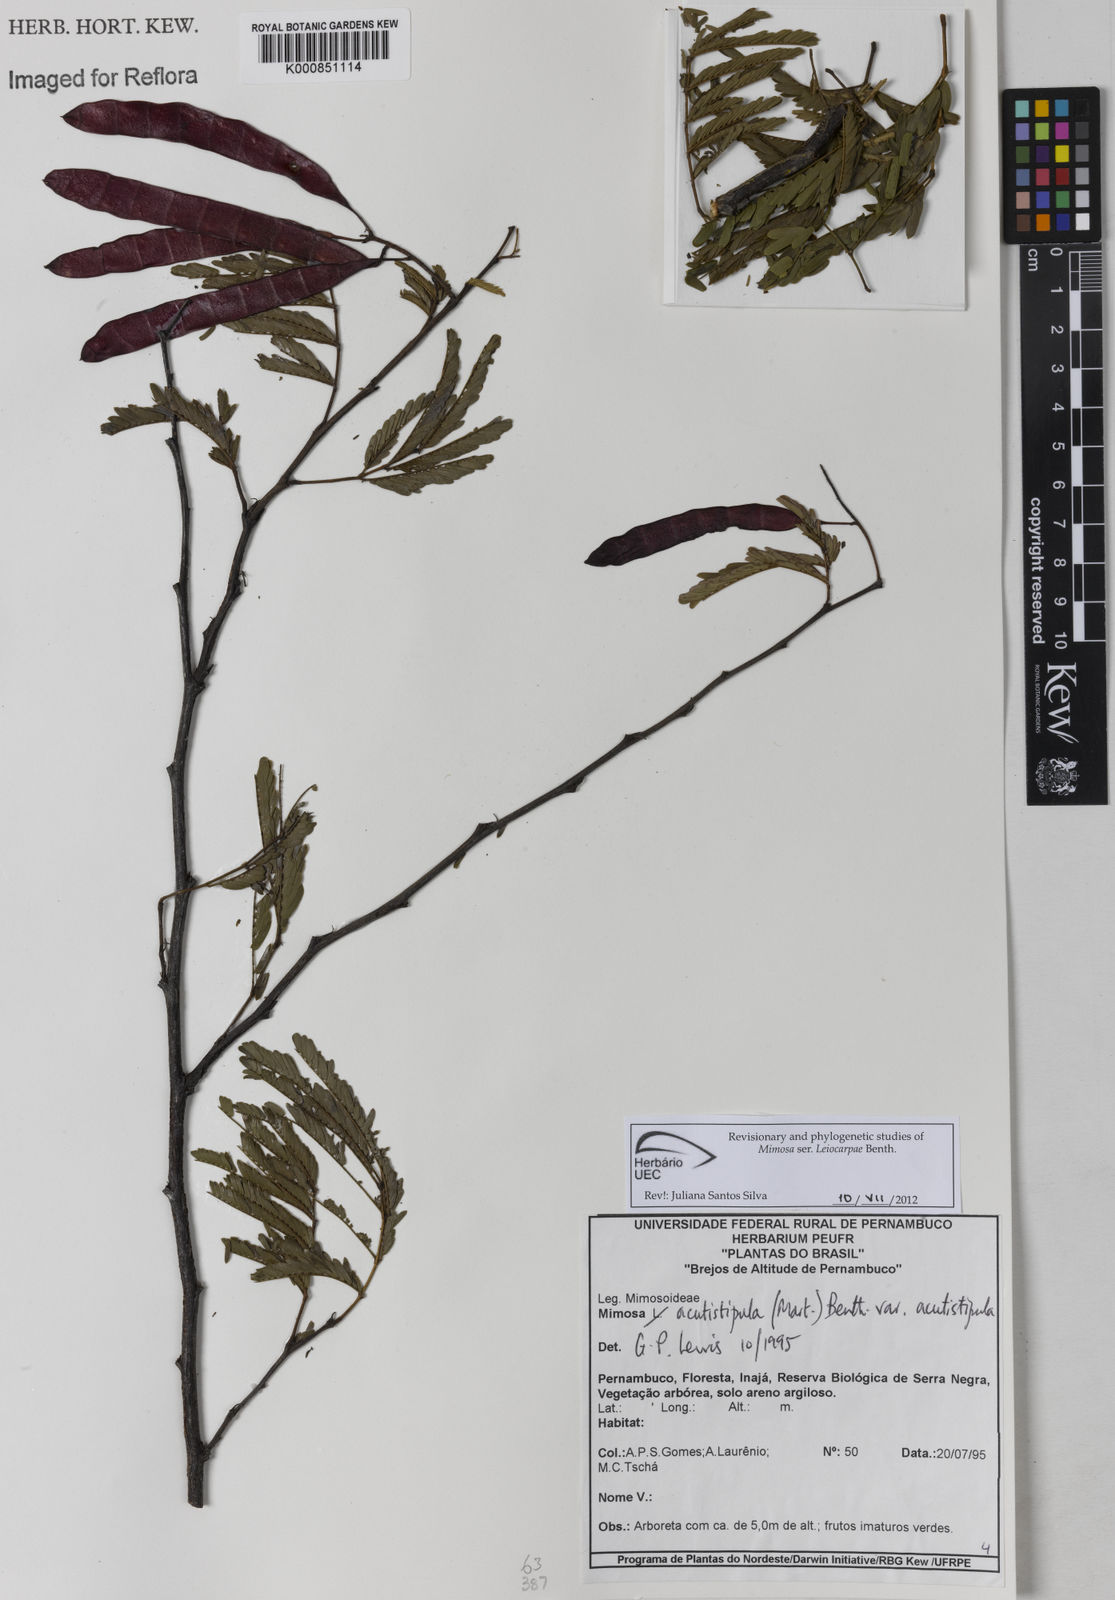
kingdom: Plantae
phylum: Tracheophyta
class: Magnoliopsida
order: Fabales
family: Fabaceae
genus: Mimosa
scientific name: Mimosa acutistipula
